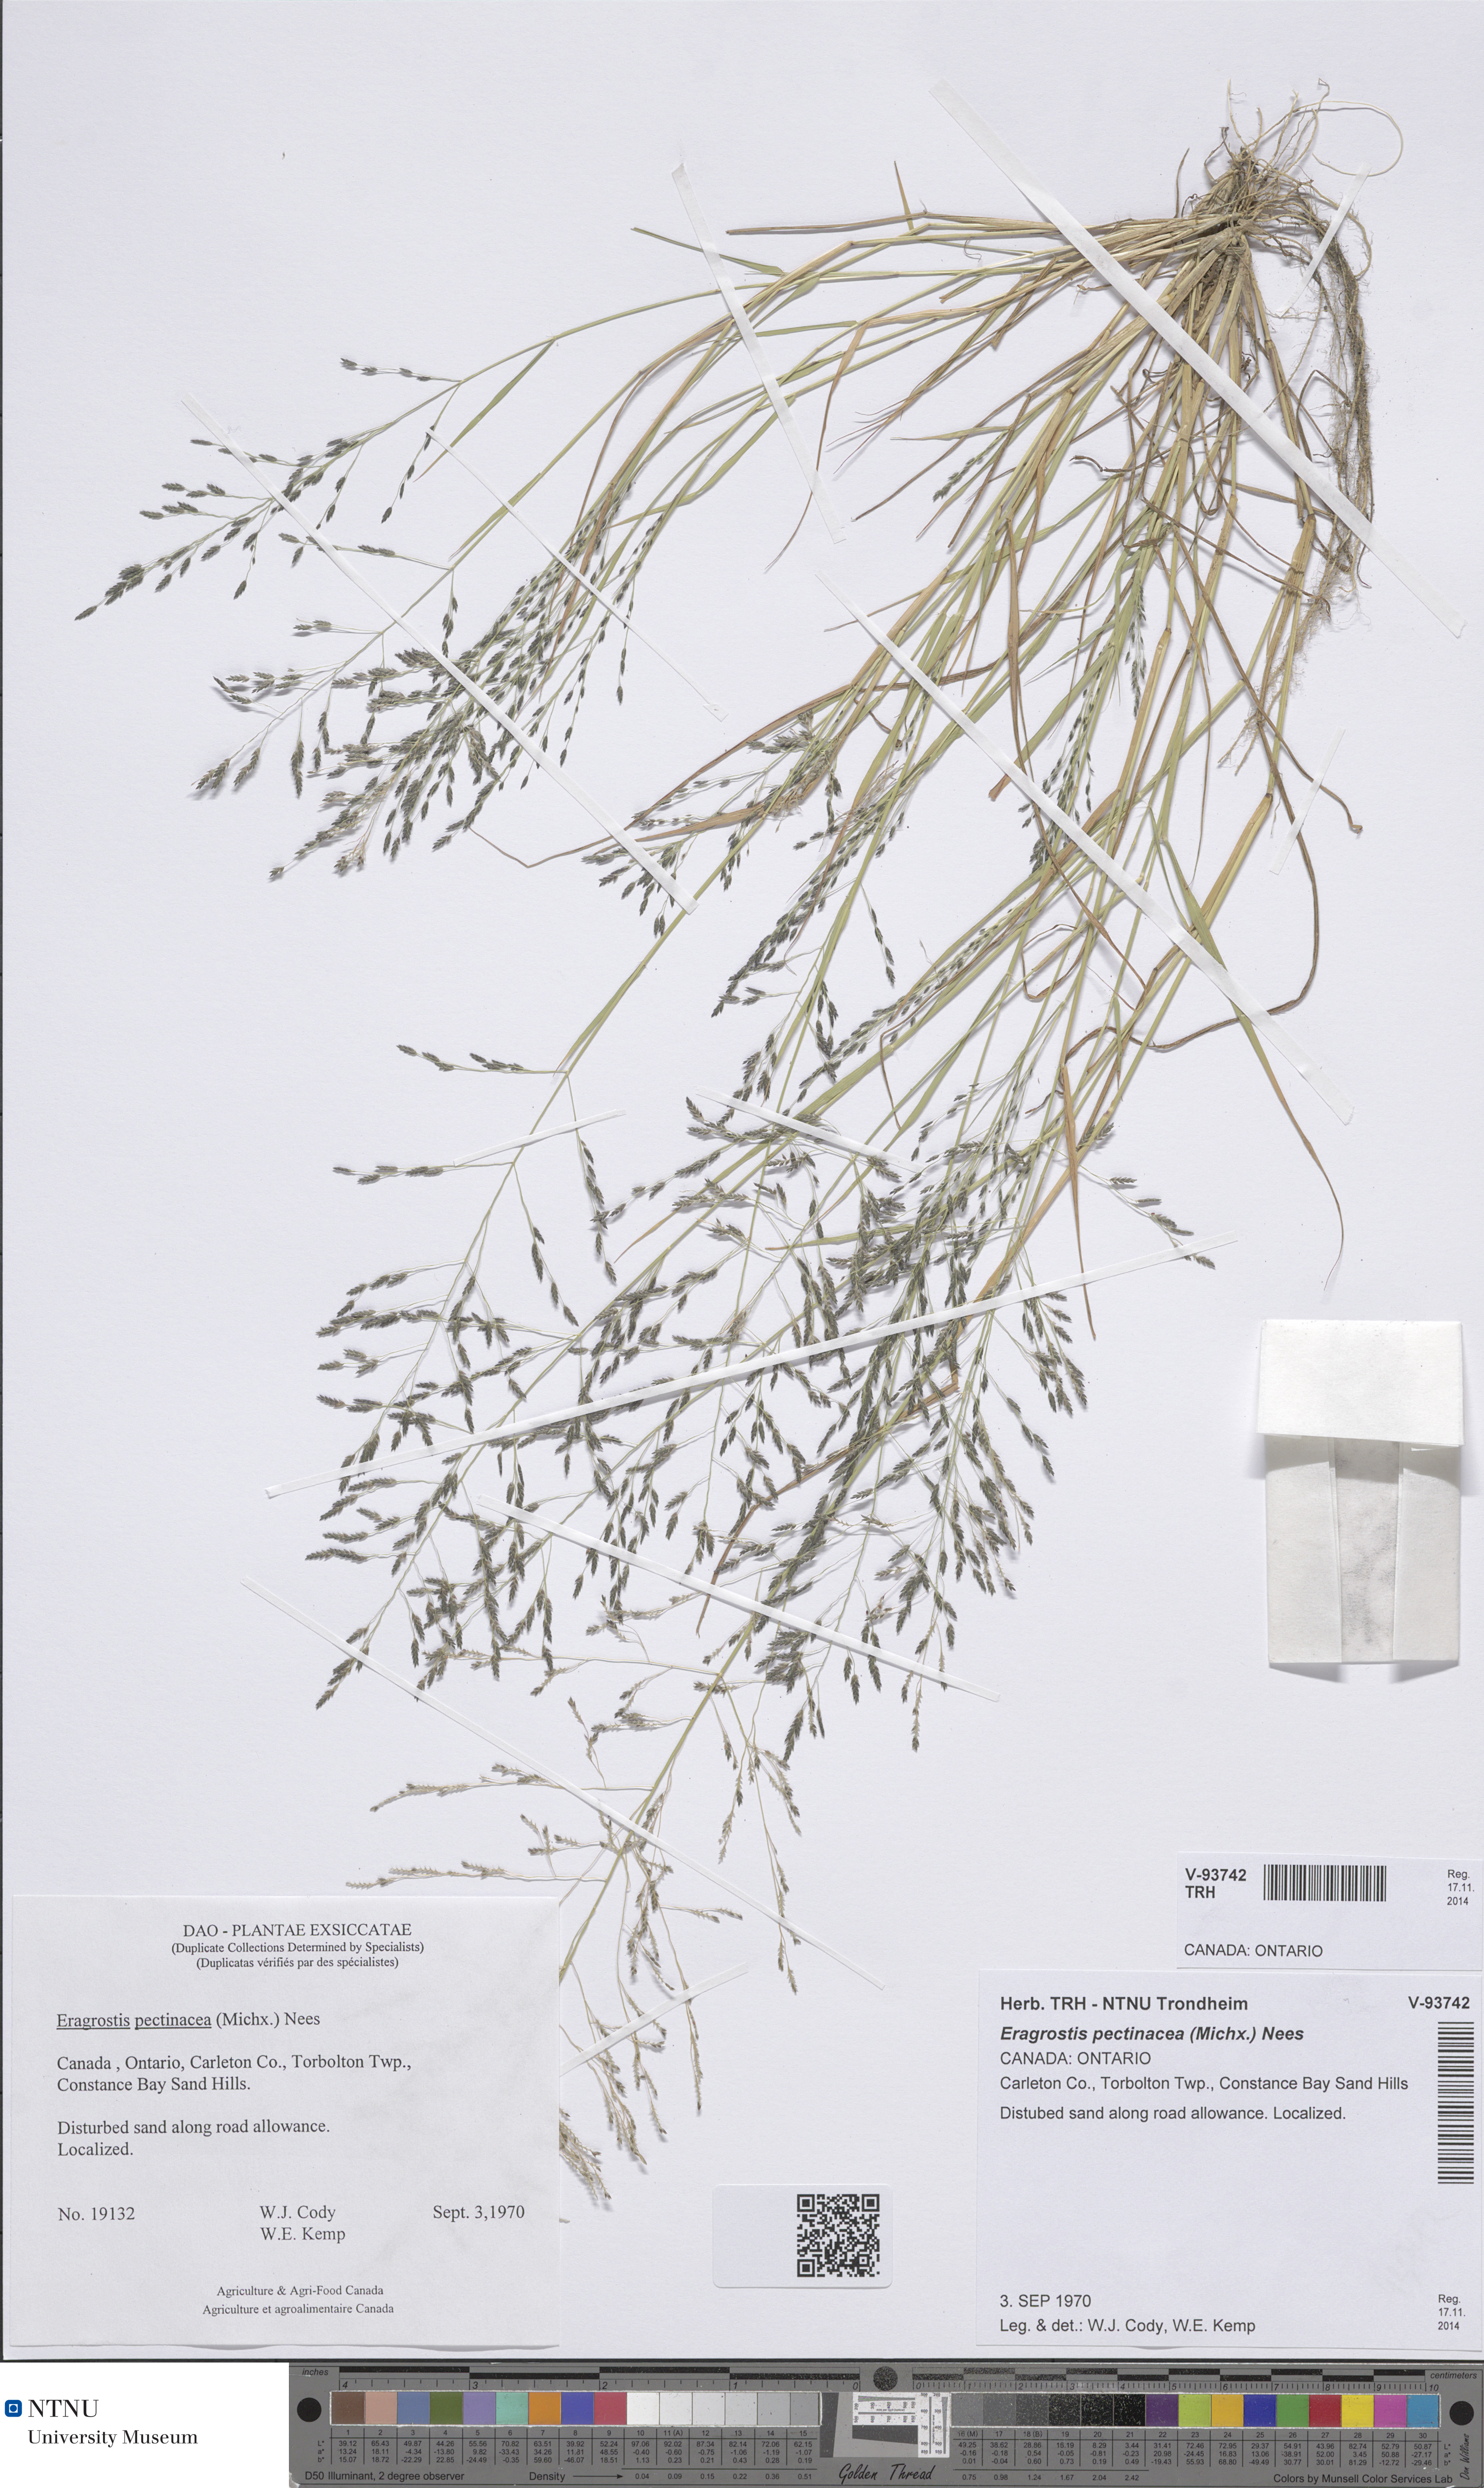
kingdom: Plantae
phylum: Tracheophyta
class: Liliopsida
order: Poales
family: Poaceae
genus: Eragrostis
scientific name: Eragrostis pectinacea
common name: Tufted lovegrass
